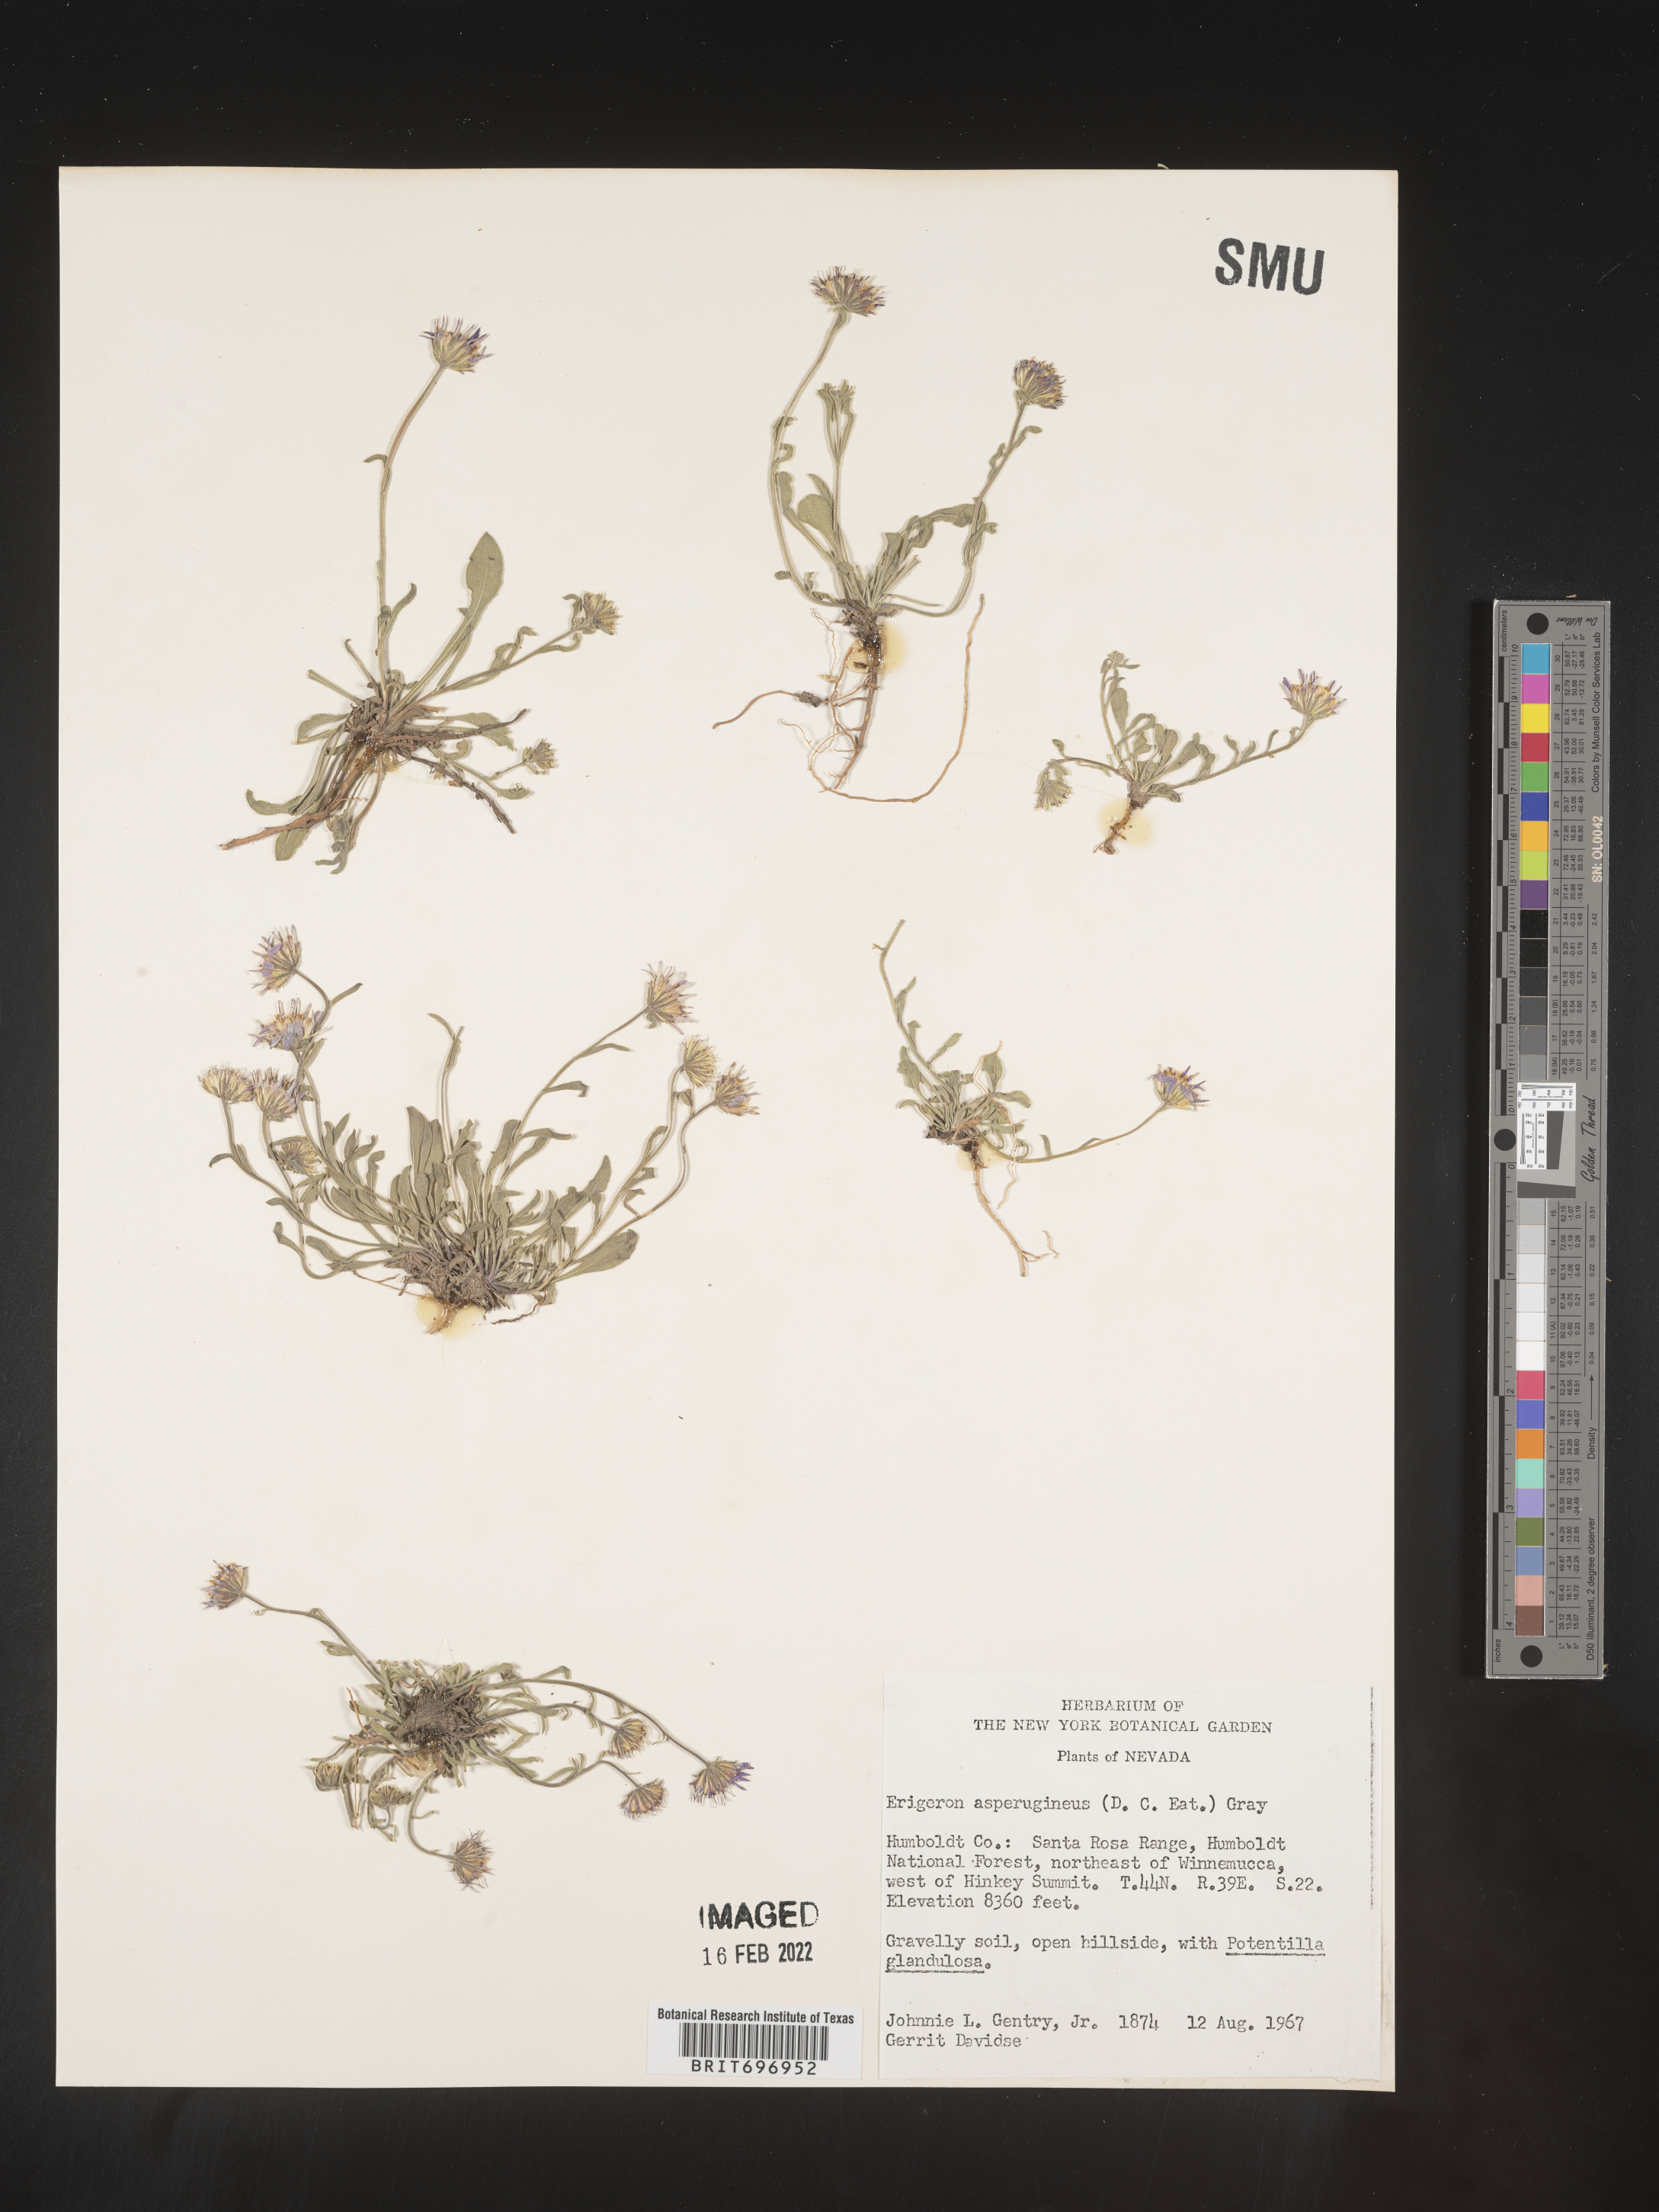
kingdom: Plantae
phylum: Tracheophyta
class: Magnoliopsida
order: Asterales
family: Asteraceae
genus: Erigeron
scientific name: Erigeron asperugineus
